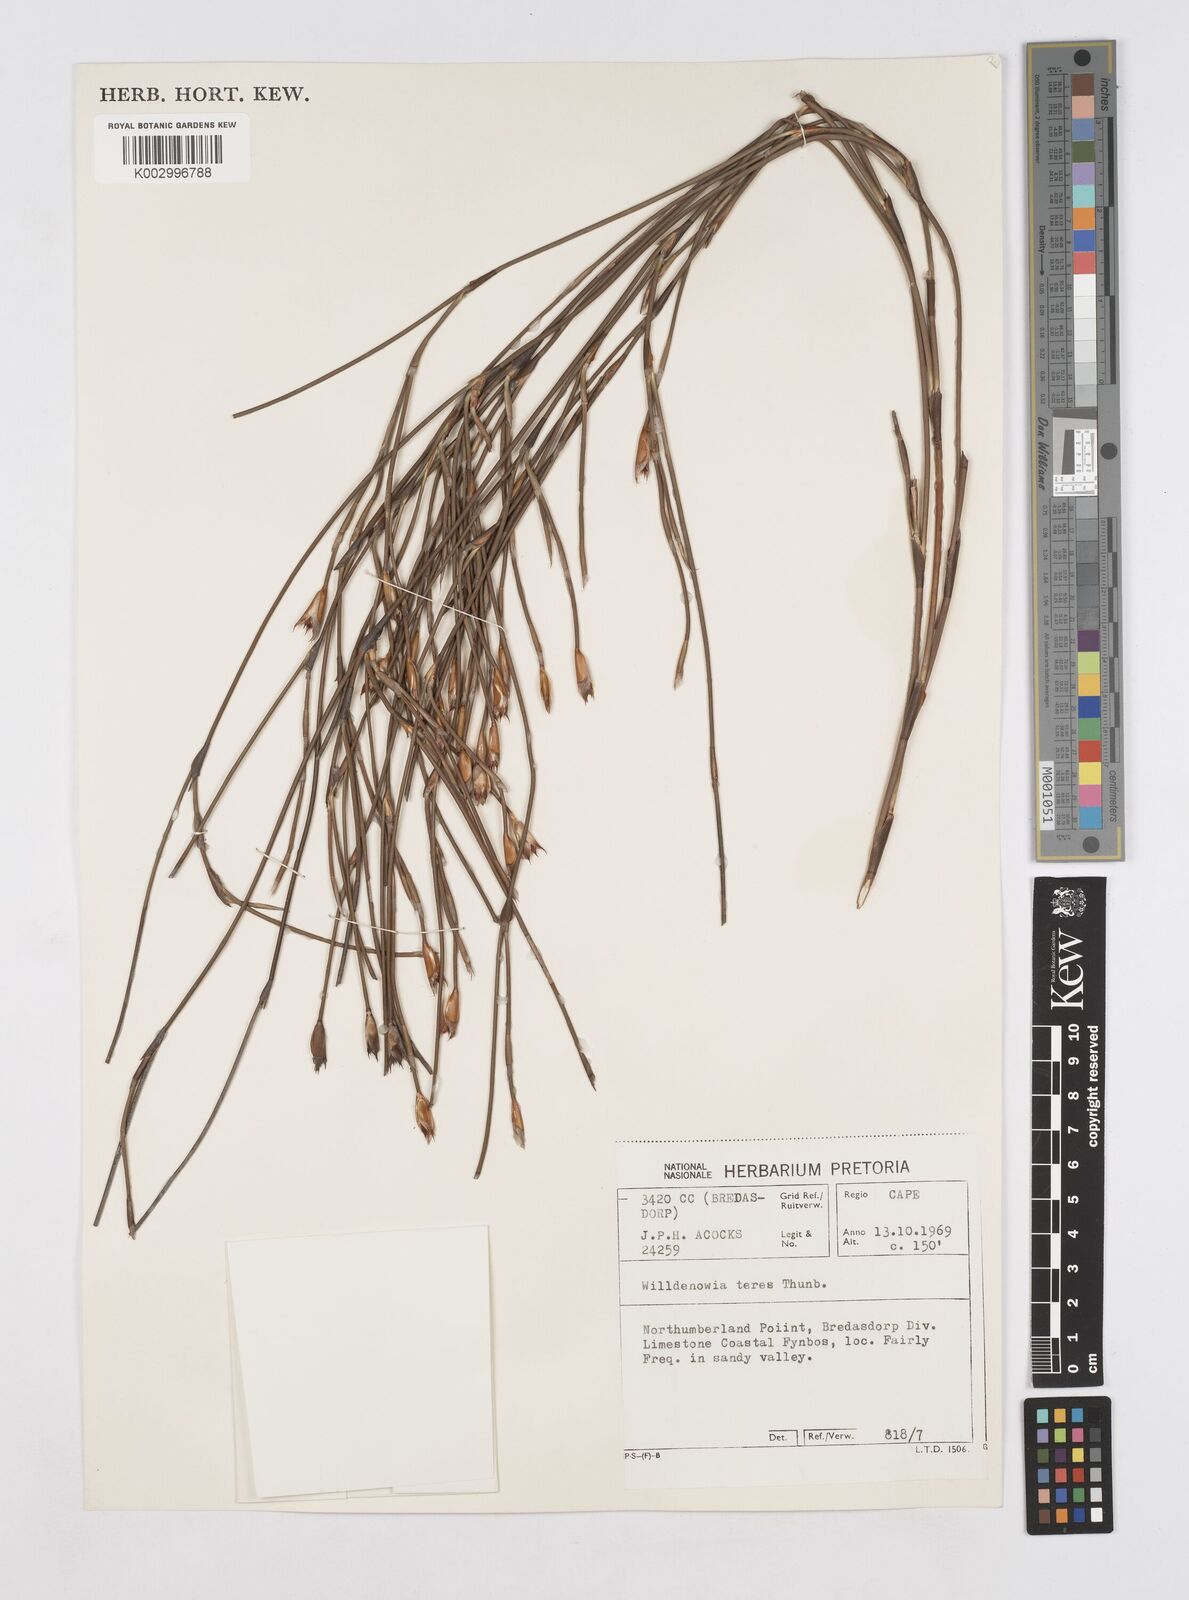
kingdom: Plantae
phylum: Tracheophyta
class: Liliopsida
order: Poales
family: Restionaceae
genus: Willdenowia
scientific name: Willdenowia teres
